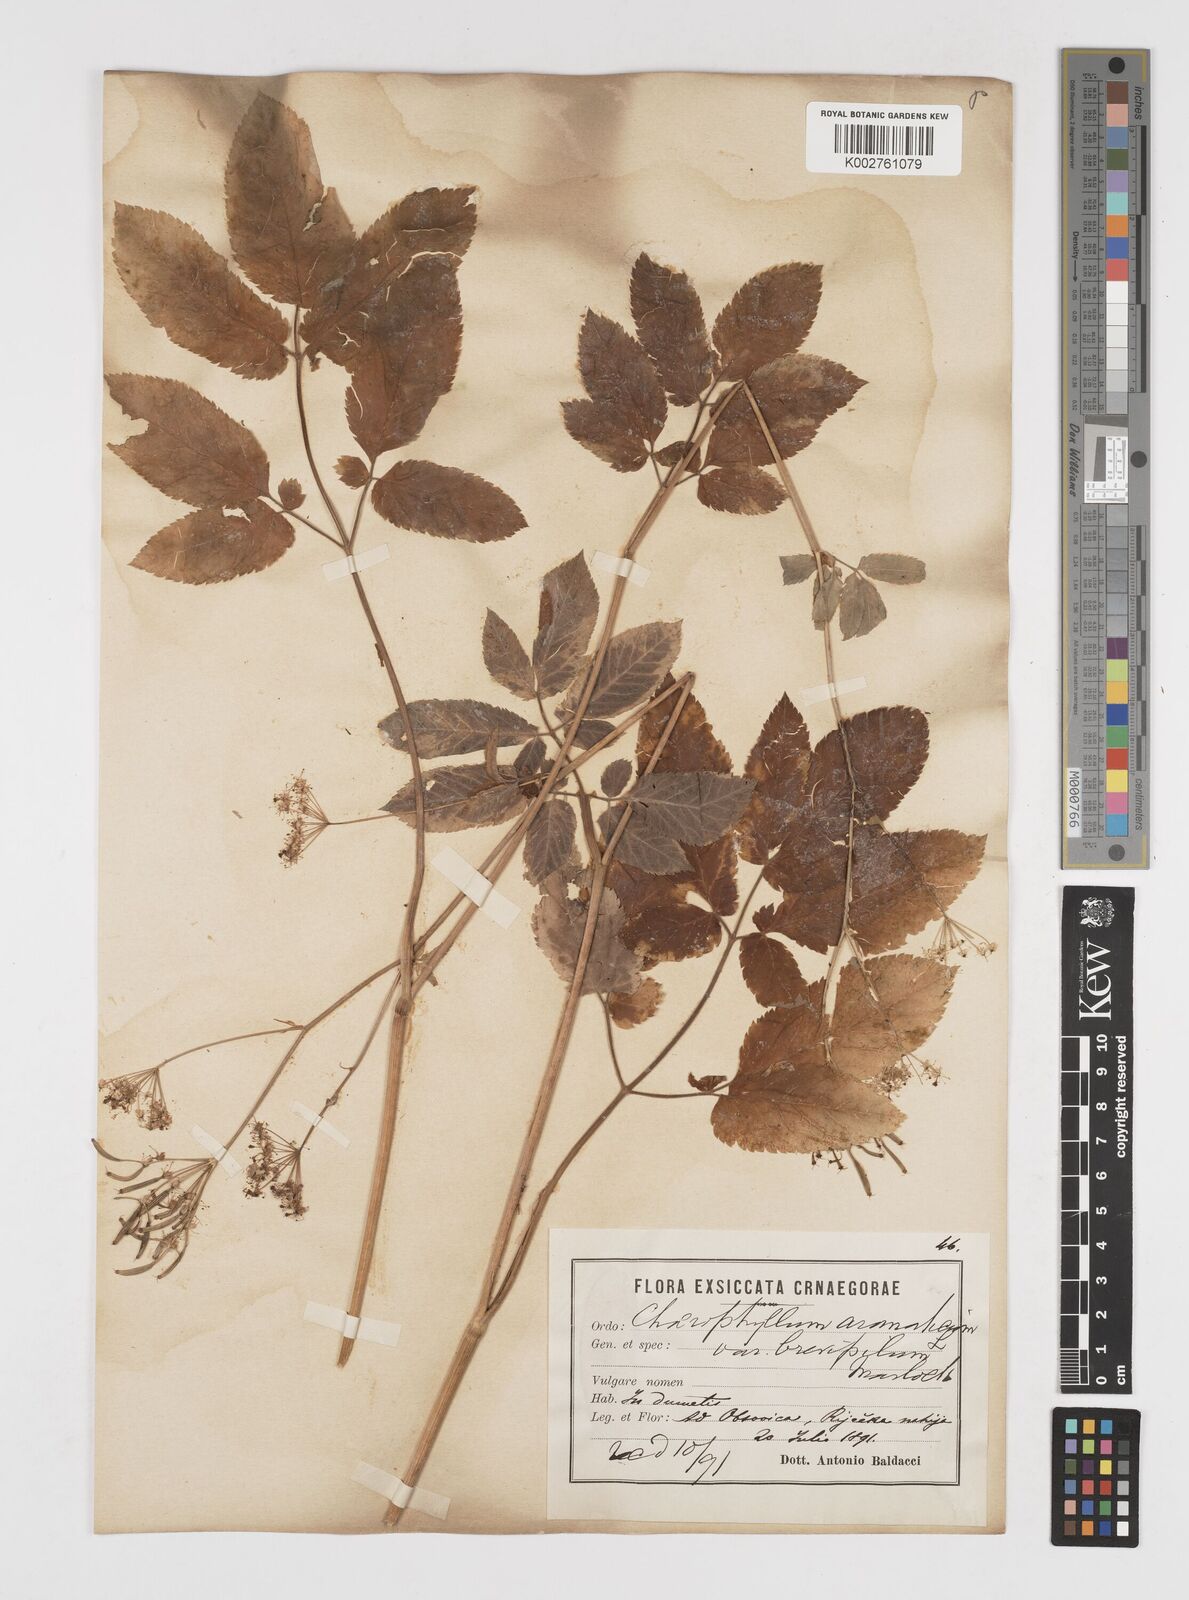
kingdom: Plantae
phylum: Tracheophyta
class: Magnoliopsida
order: Apiales
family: Apiaceae
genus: Chaerophyllum
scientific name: Chaerophyllum aromaticum
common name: Broadleaf chervil
